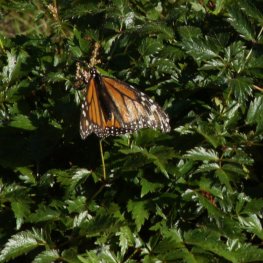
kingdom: Animalia
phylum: Arthropoda
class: Insecta
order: Lepidoptera
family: Nymphalidae
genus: Danaus
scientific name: Danaus plexippus
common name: Monarch
